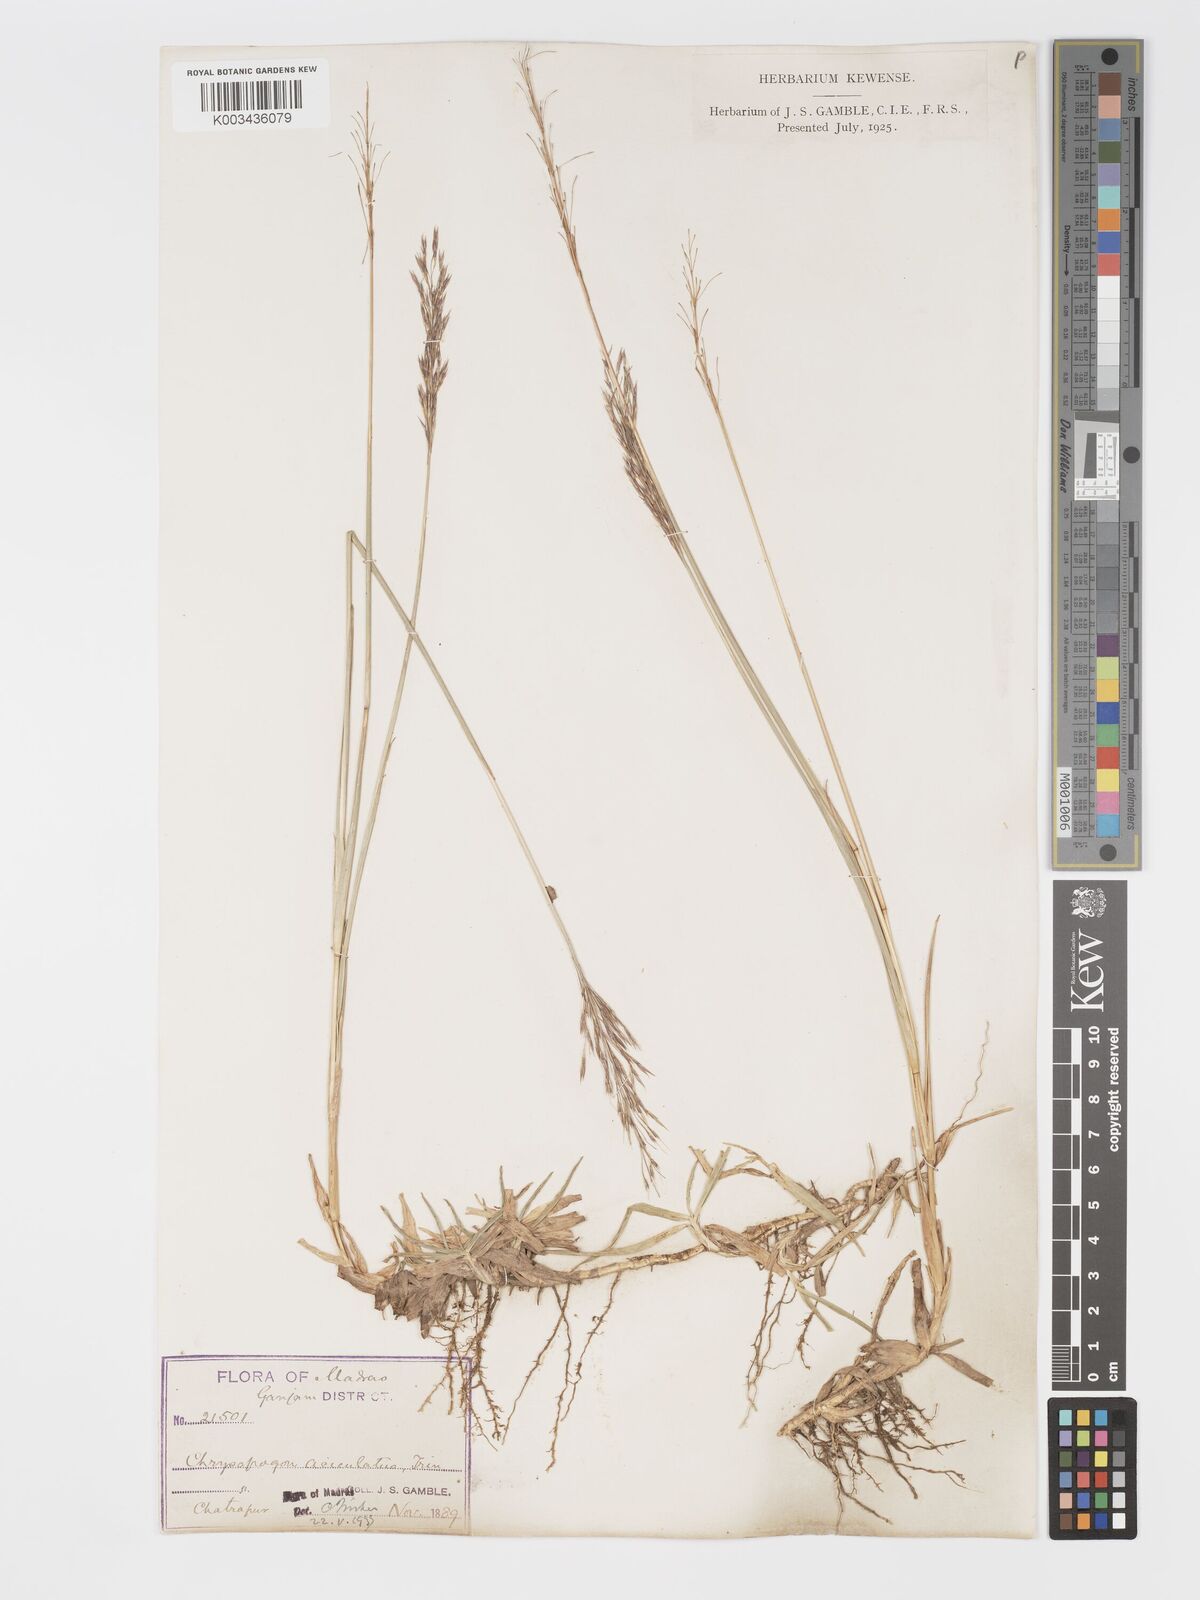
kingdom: Plantae
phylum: Tracheophyta
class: Liliopsida
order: Poales
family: Poaceae
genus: Chrysopogon
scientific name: Chrysopogon aciculatus
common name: Pilipiliula
